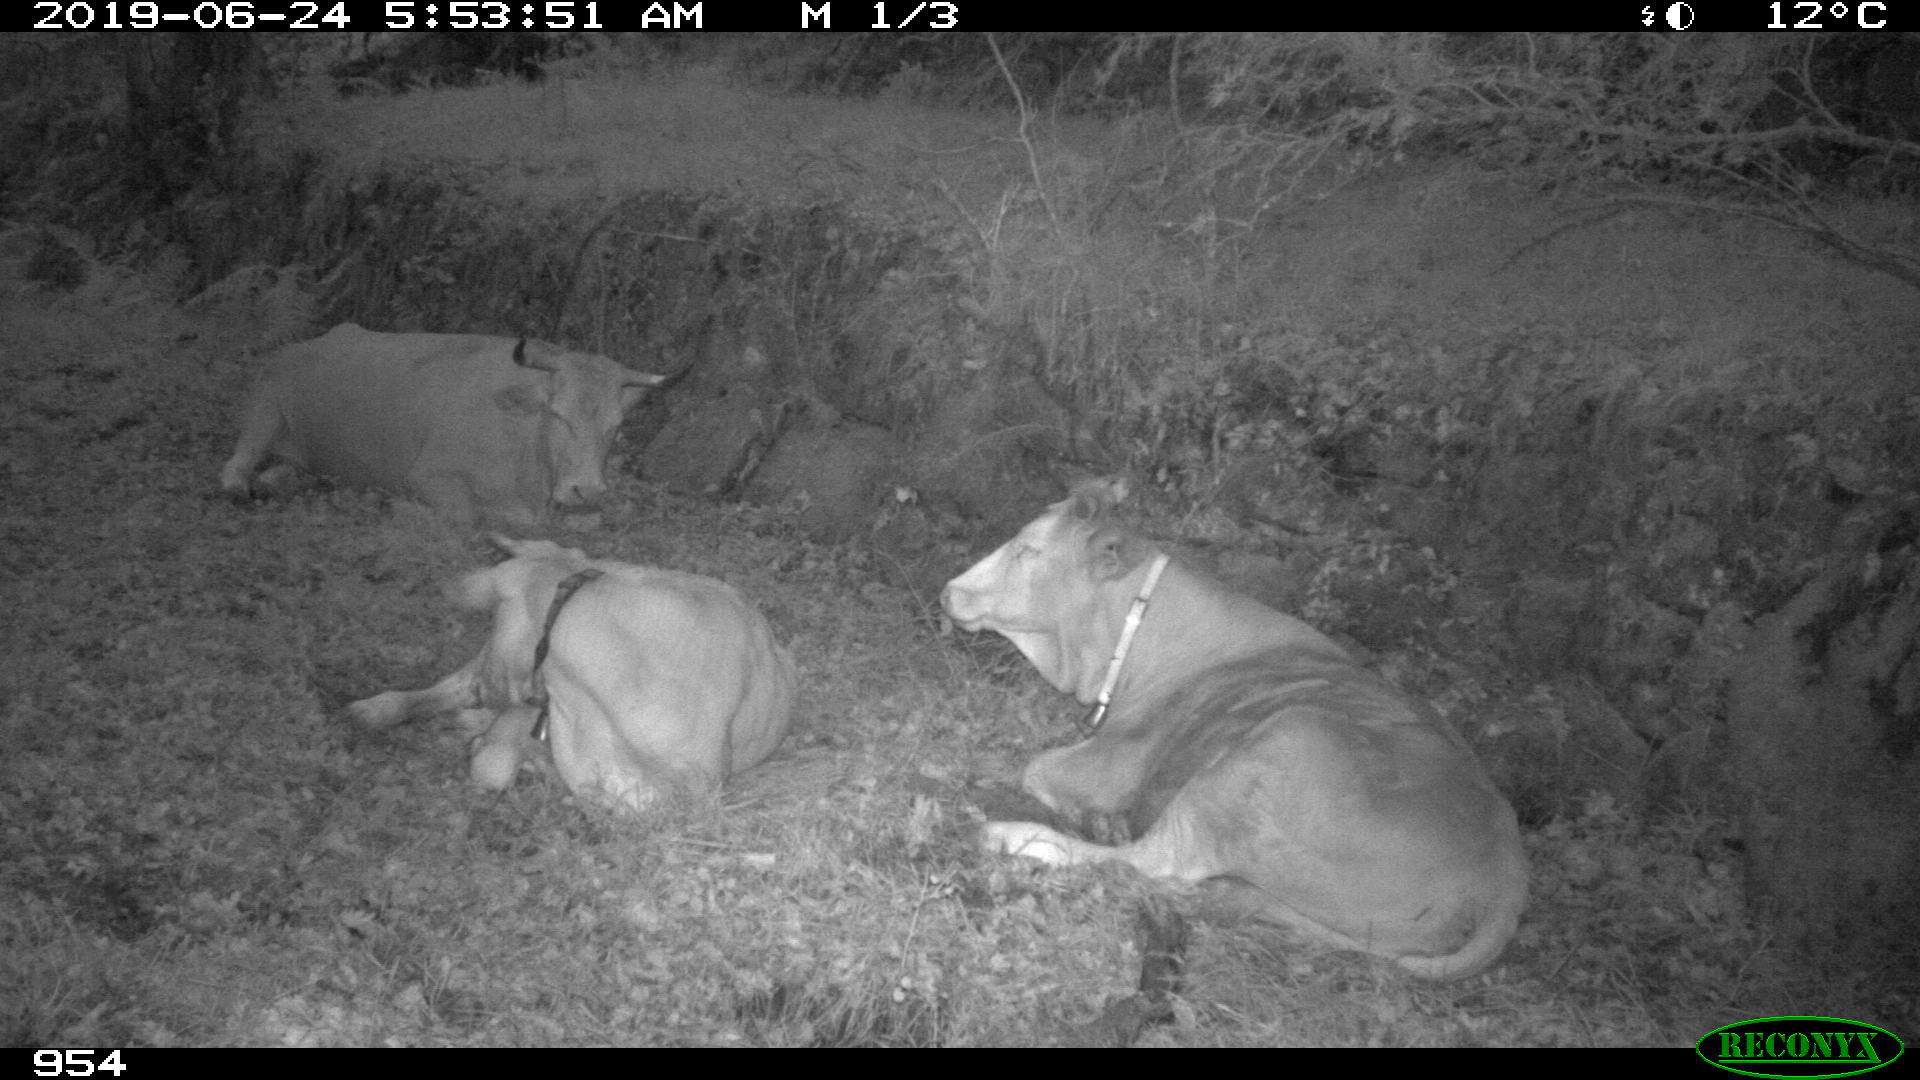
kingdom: Animalia
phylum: Chordata
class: Mammalia
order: Artiodactyla
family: Bovidae
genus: Bos
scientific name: Bos taurus
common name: Domesticated cattle
